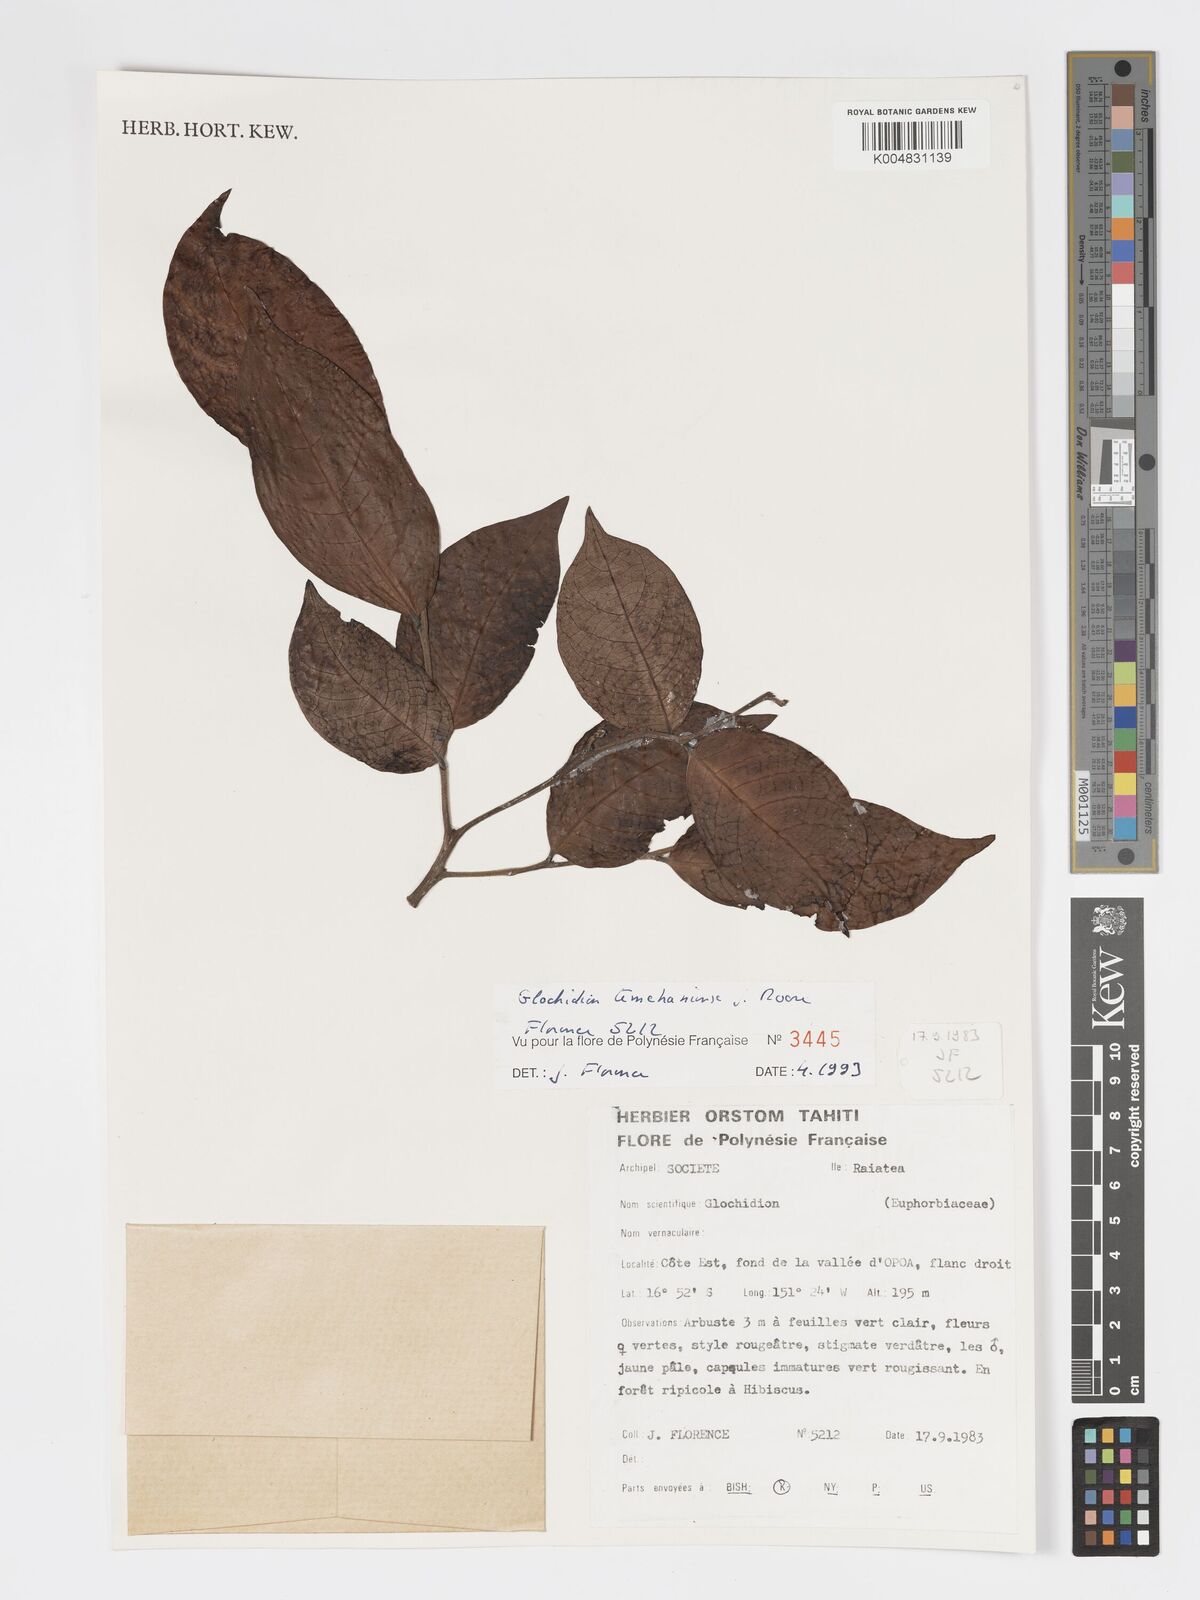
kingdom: Plantae
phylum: Tracheophyta
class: Magnoliopsida
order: Malpighiales
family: Phyllanthaceae
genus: Glochidion
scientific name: Glochidion temehaniense
